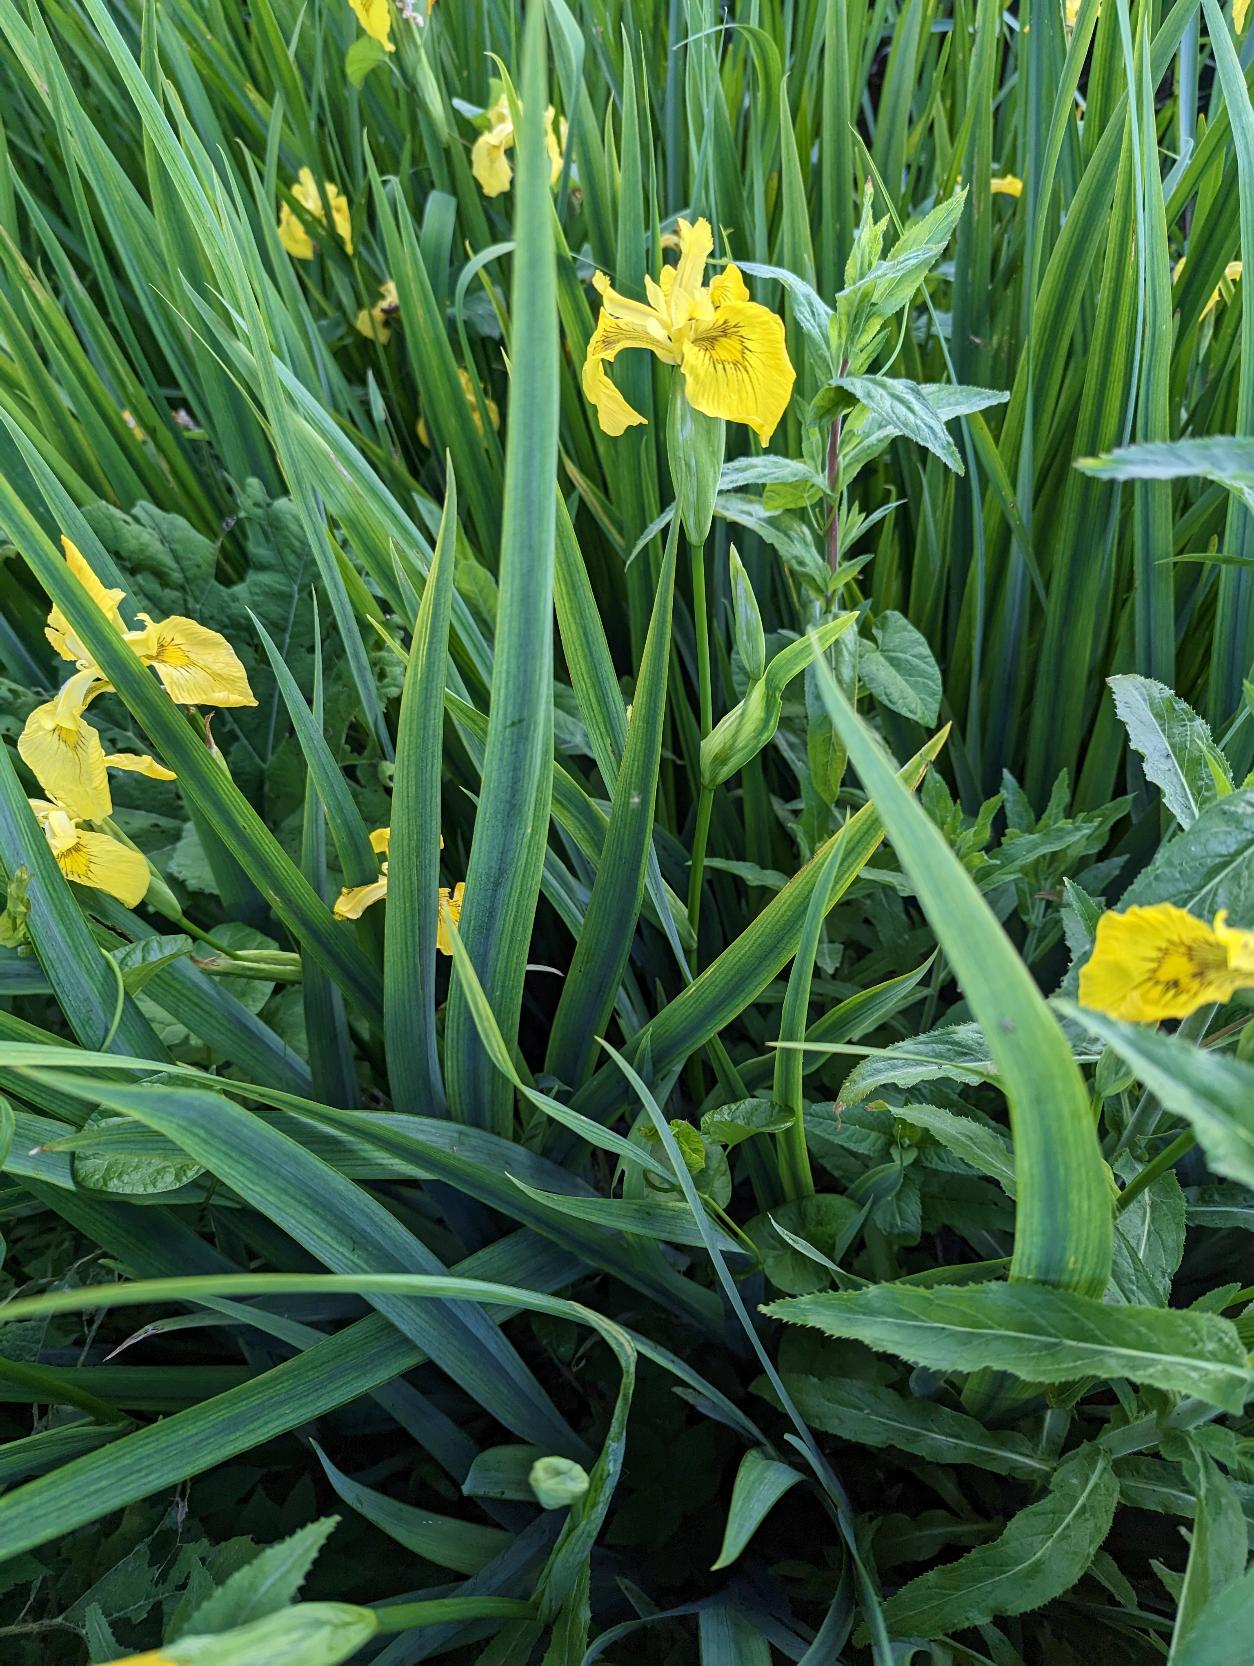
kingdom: Plantae
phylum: Tracheophyta
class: Liliopsida
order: Asparagales
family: Iridaceae
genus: Iris
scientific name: Iris pseudacorus
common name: Gul iris
